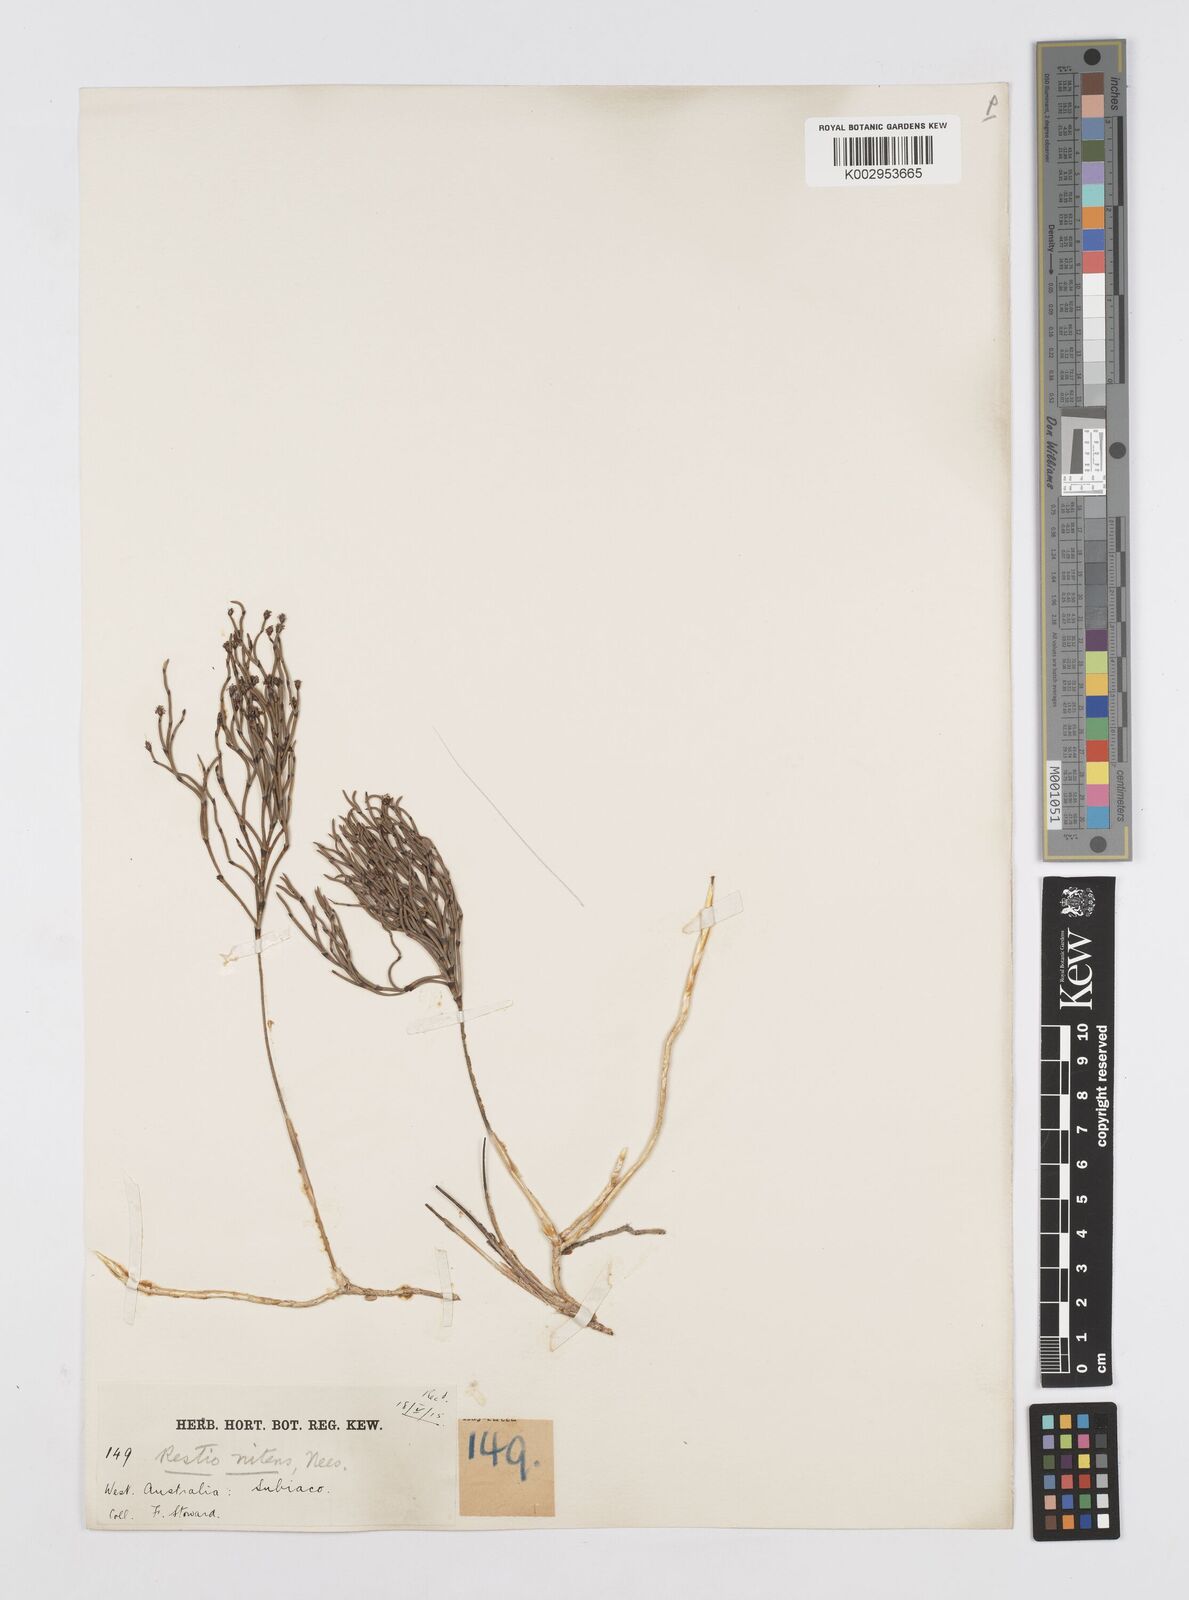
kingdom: Plantae
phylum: Tracheophyta
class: Liliopsida
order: Poales
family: Restionaceae
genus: Alexgeorgea
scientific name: Alexgeorgea nitens
